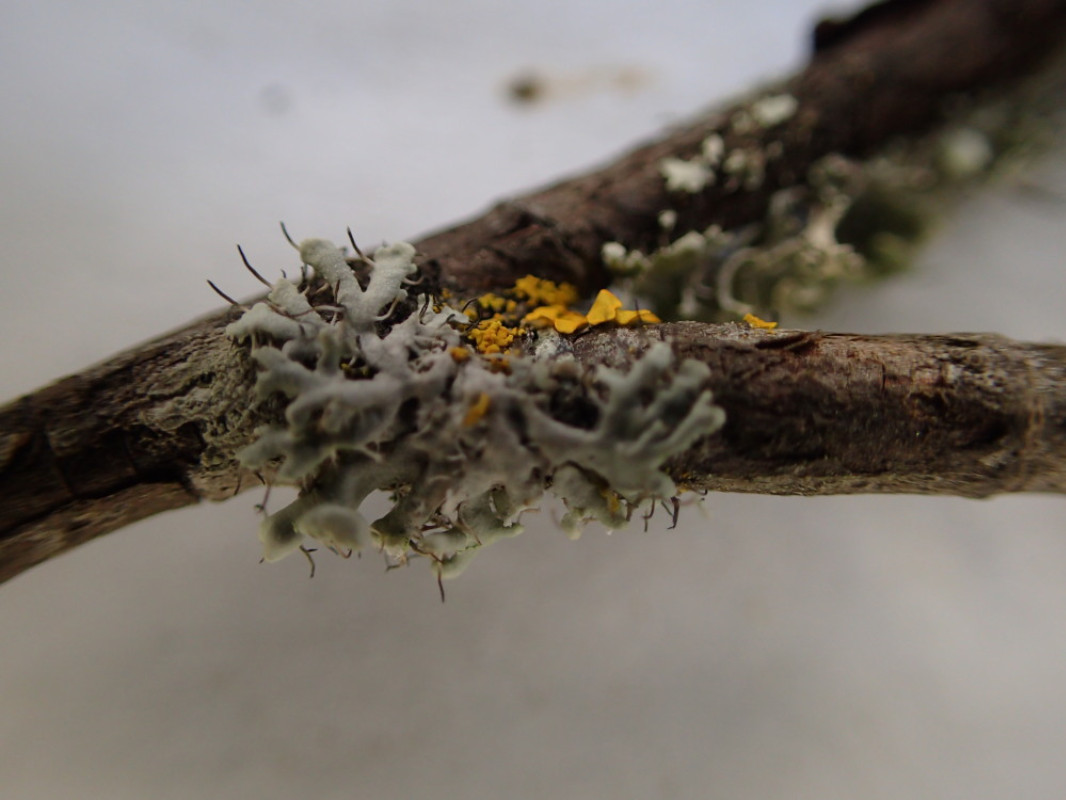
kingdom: Fungi
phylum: Ascomycota
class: Lecanoromycetes
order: Caliciales
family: Physciaceae
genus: Physcia
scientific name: Physcia tenella
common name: spæd rosetlav
